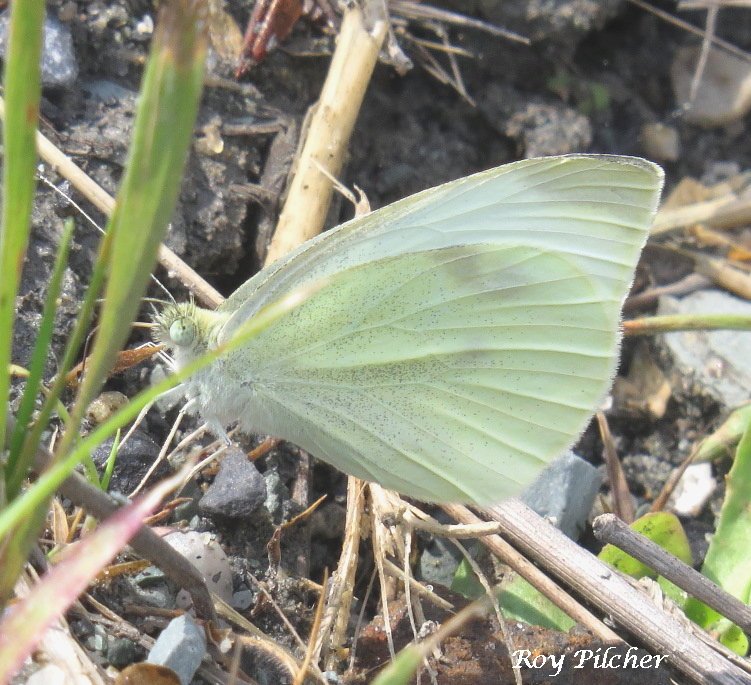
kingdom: Animalia
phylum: Arthropoda
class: Insecta
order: Lepidoptera
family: Pieridae
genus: Pieris
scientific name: Pieris rapae
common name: Cabbage White
